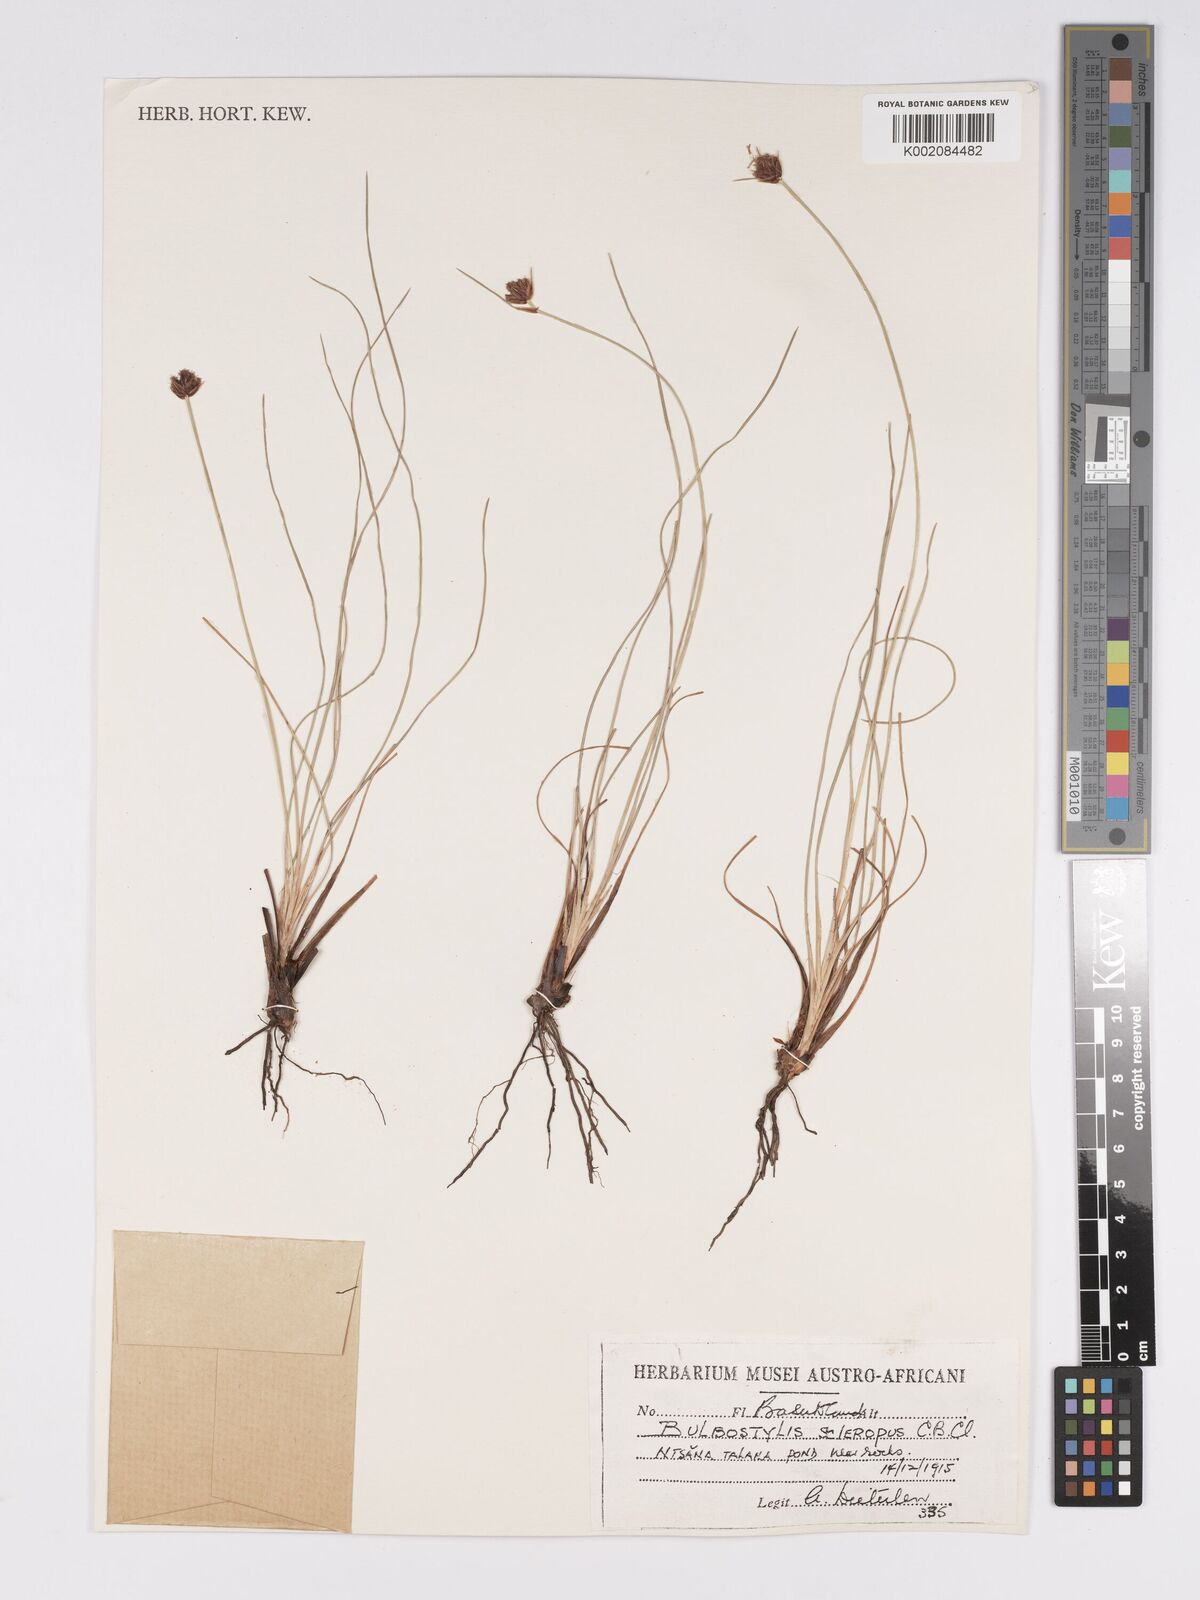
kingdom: Plantae
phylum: Tracheophyta
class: Liliopsida
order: Poales
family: Cyperaceae
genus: Bulbostylis
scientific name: Bulbostylis schoenoides
